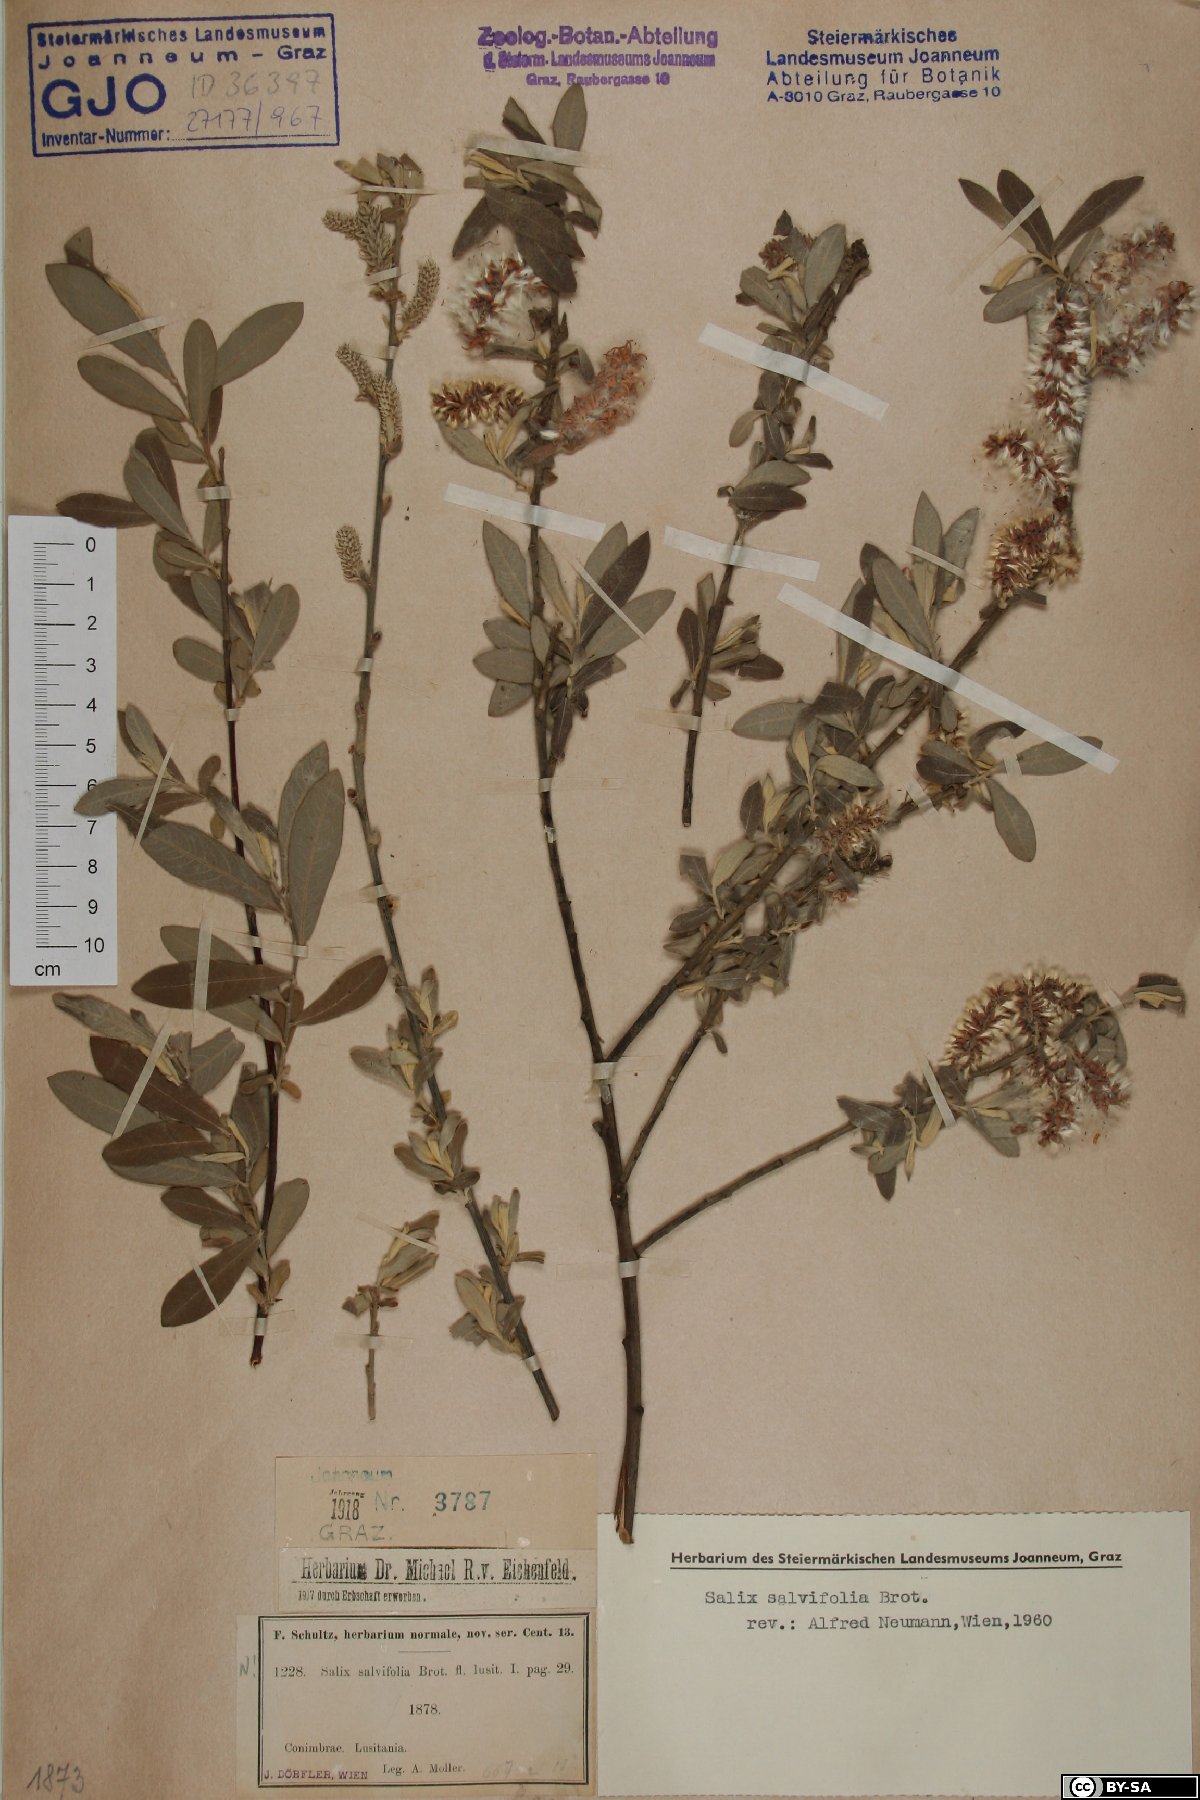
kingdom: Plantae
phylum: Tracheophyta
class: Magnoliopsida
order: Malpighiales
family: Salicaceae
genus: Salix
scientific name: Salix salviifolia
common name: Salvia-leaf willow
